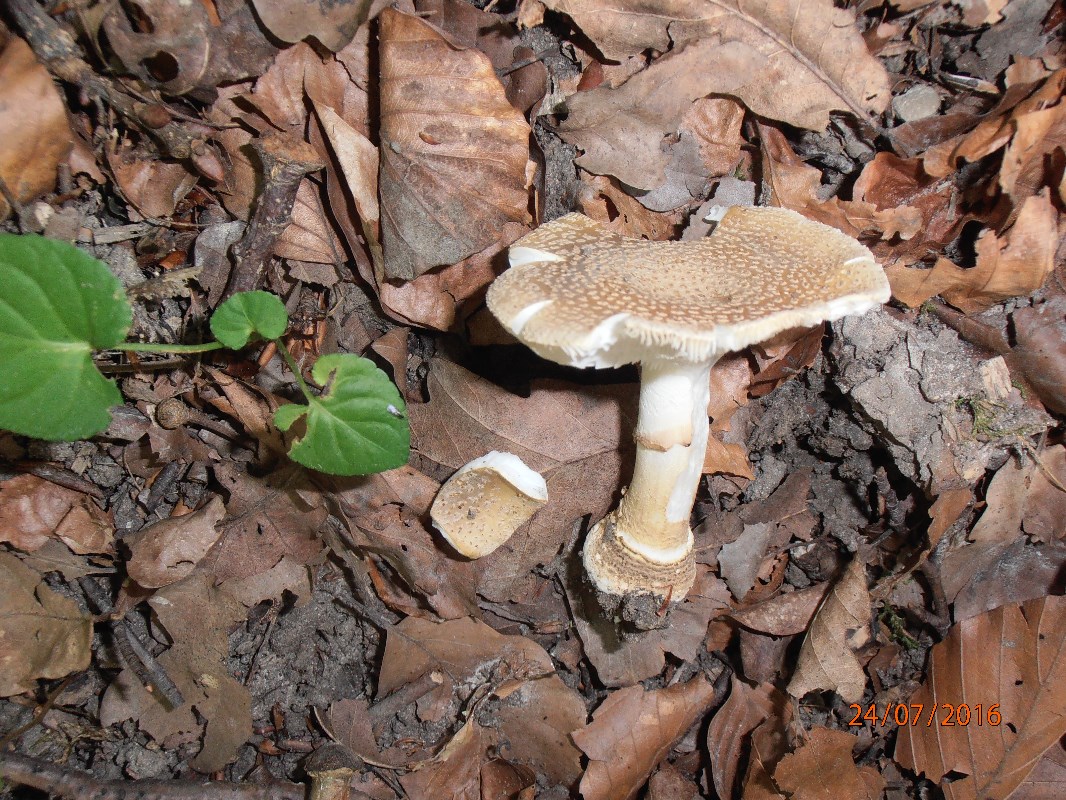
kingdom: Fungi
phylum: Basidiomycota
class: Agaricomycetes
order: Agaricales
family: Amanitaceae
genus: Amanita
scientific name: Amanita franchetii
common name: gulrandet fluesvamp
